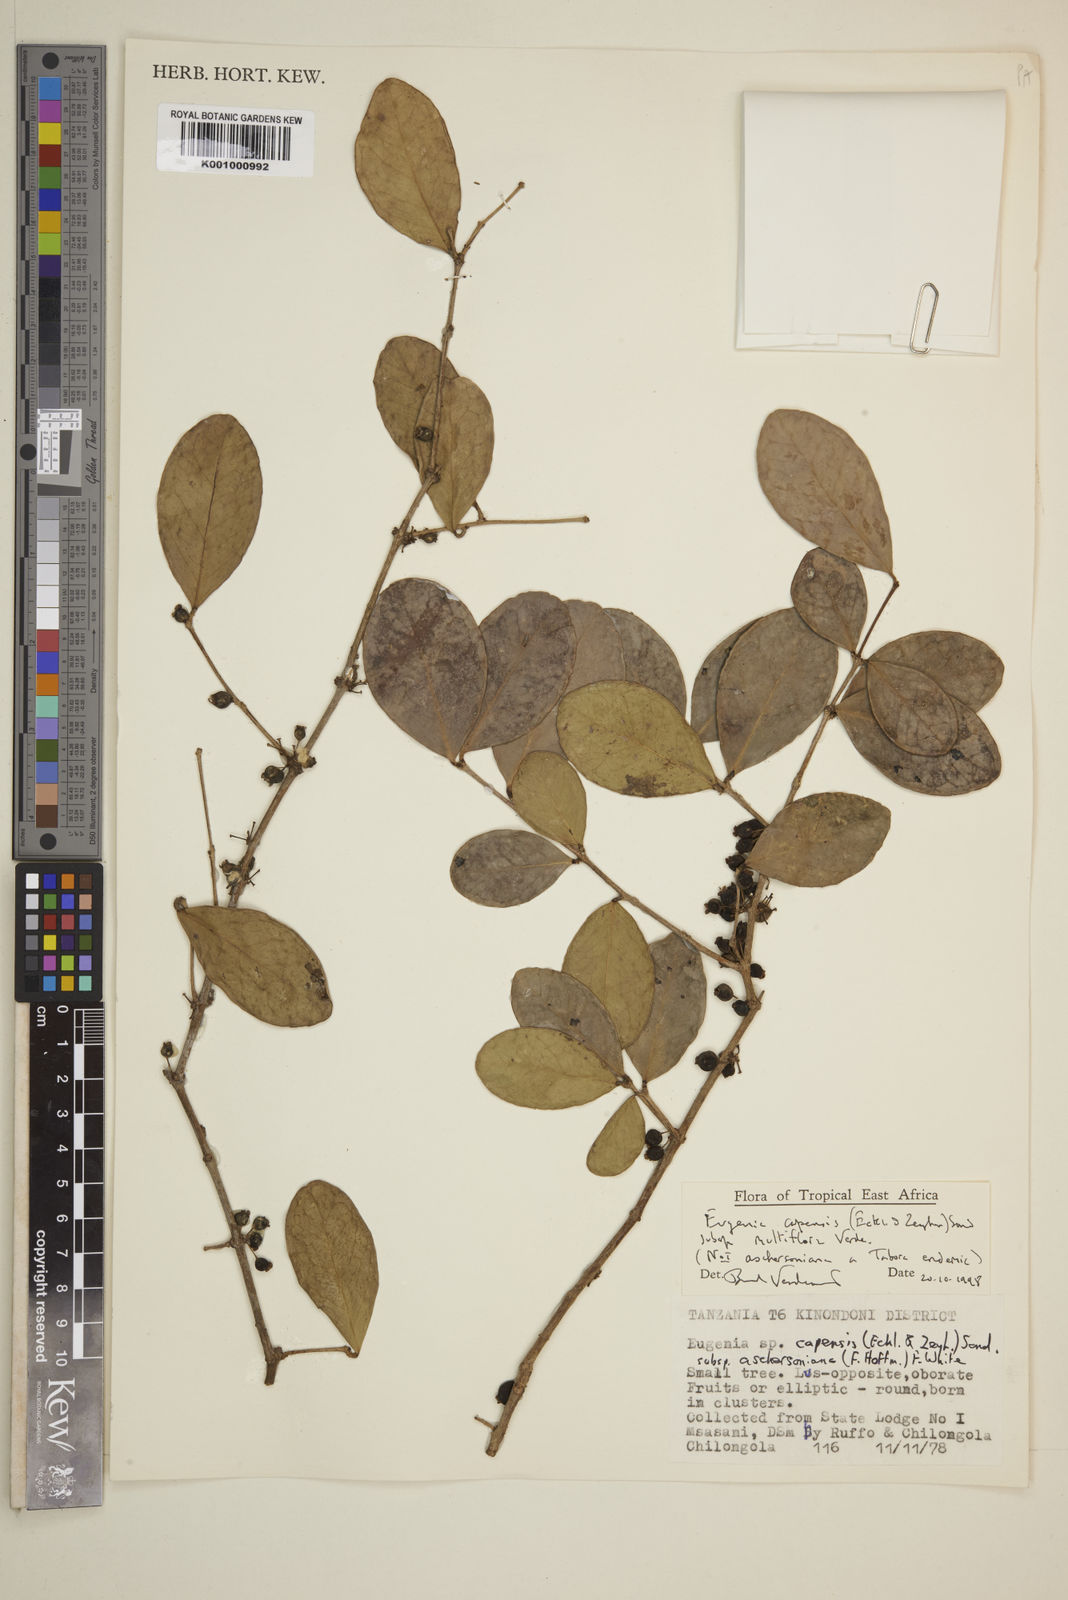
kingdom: Plantae
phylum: Tracheophyta
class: Magnoliopsida
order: Myrtales
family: Myrtaceae
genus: Eugenia
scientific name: Eugenia capensis
